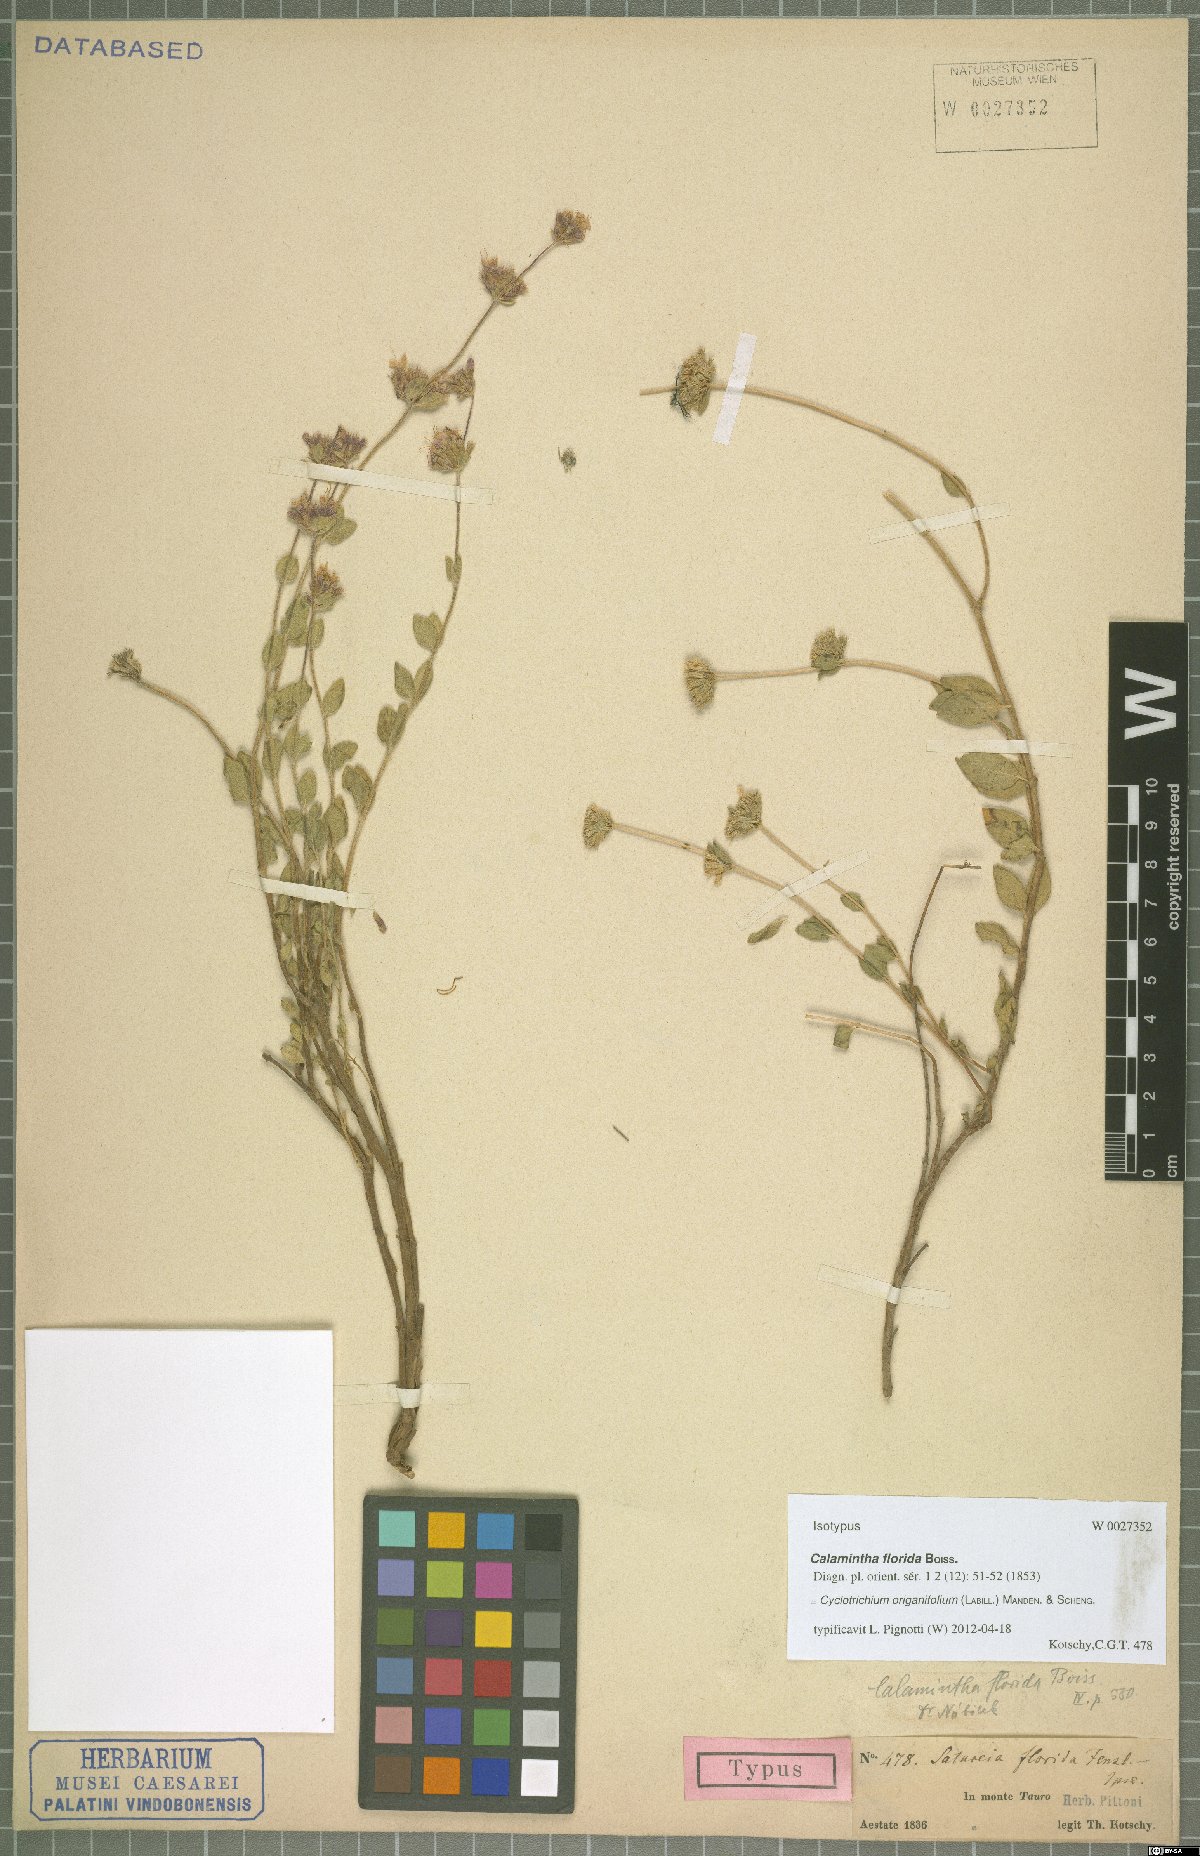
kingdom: Plantae
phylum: Tracheophyta
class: Magnoliopsida
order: Lamiales
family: Lamiaceae
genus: Cyclotrichium
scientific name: Cyclotrichium origanifolium
